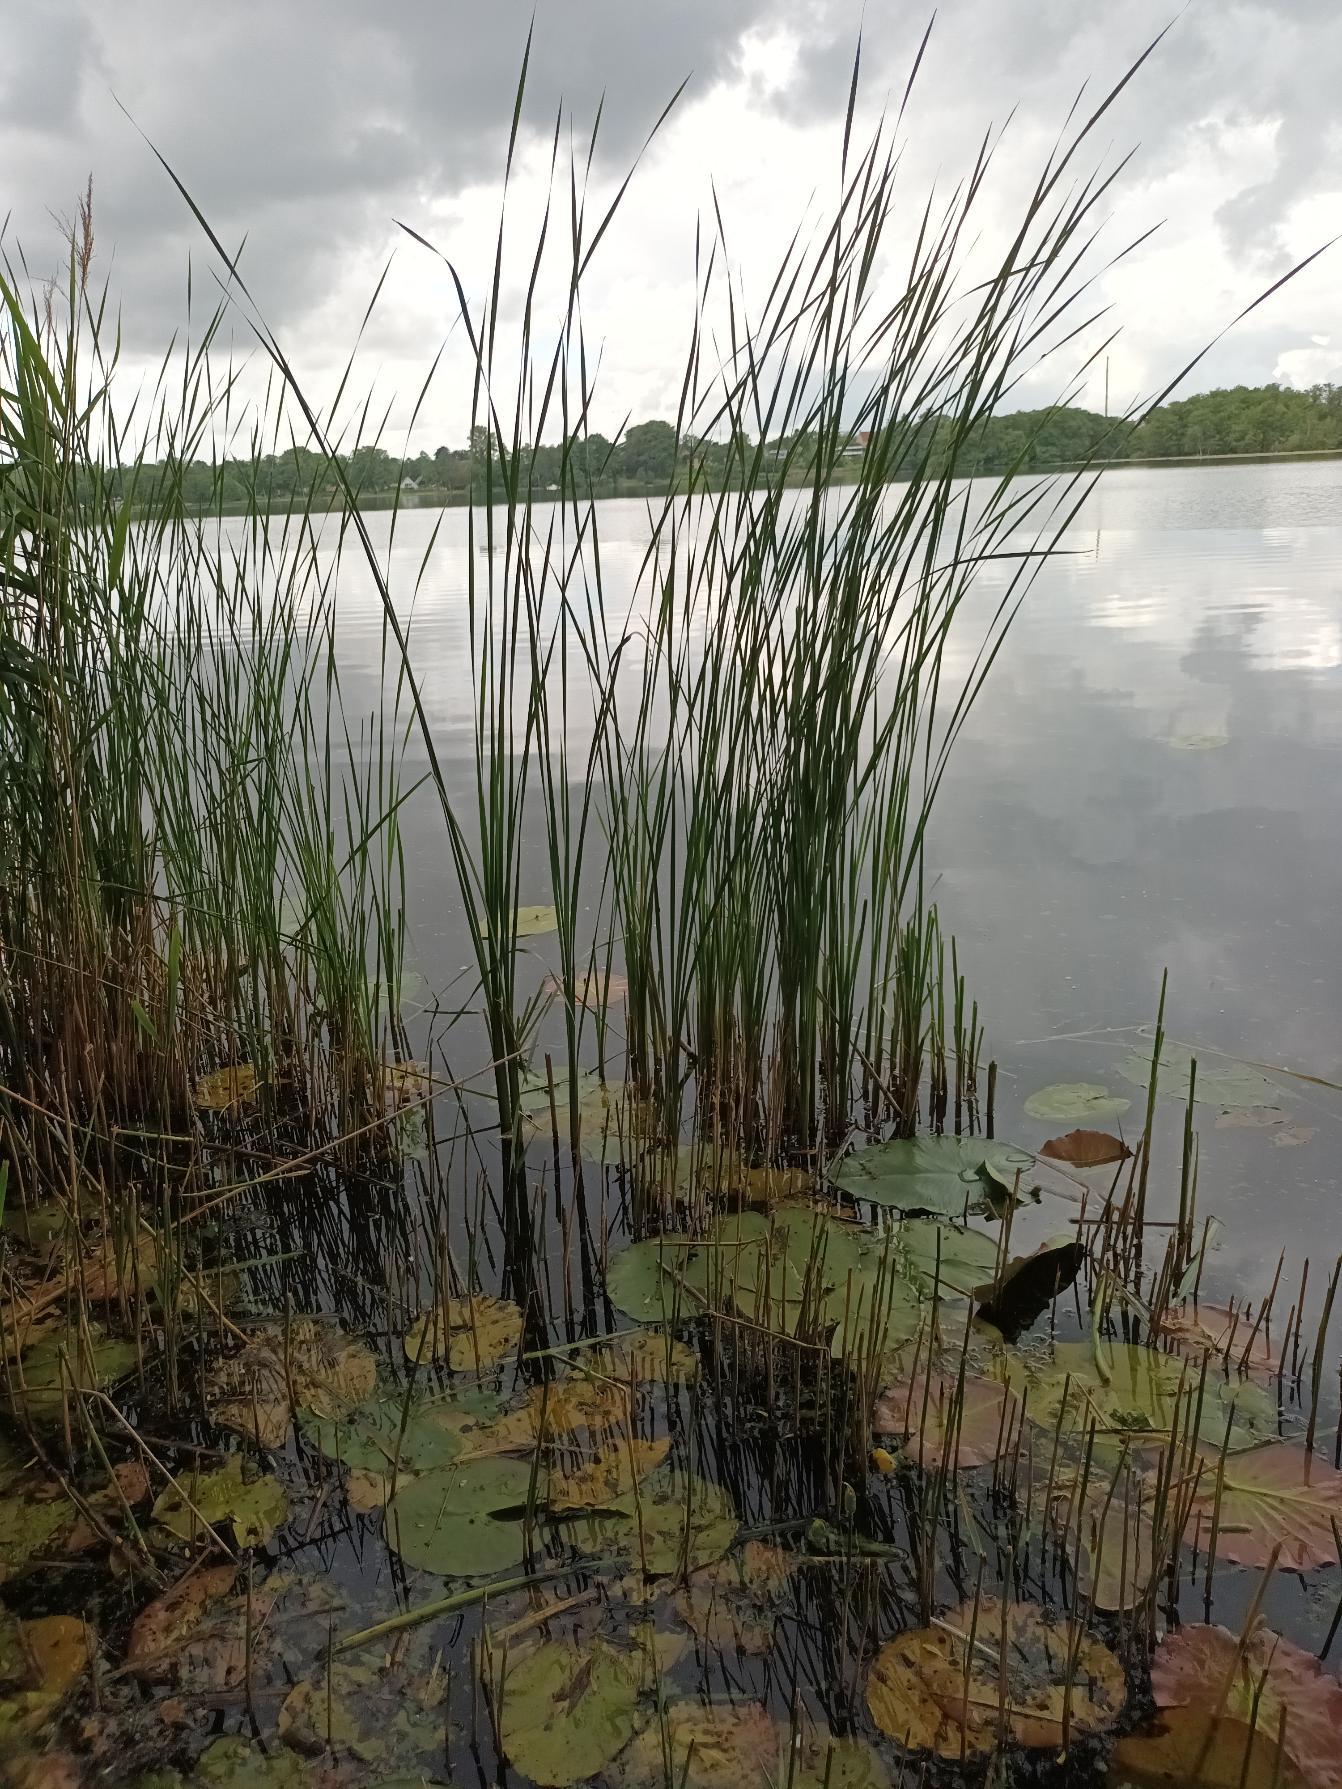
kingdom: Plantae
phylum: Tracheophyta
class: Liliopsida
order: Poales
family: Typhaceae
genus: Typha
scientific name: Typha angustifolia
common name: Smalbladet dunhammer
